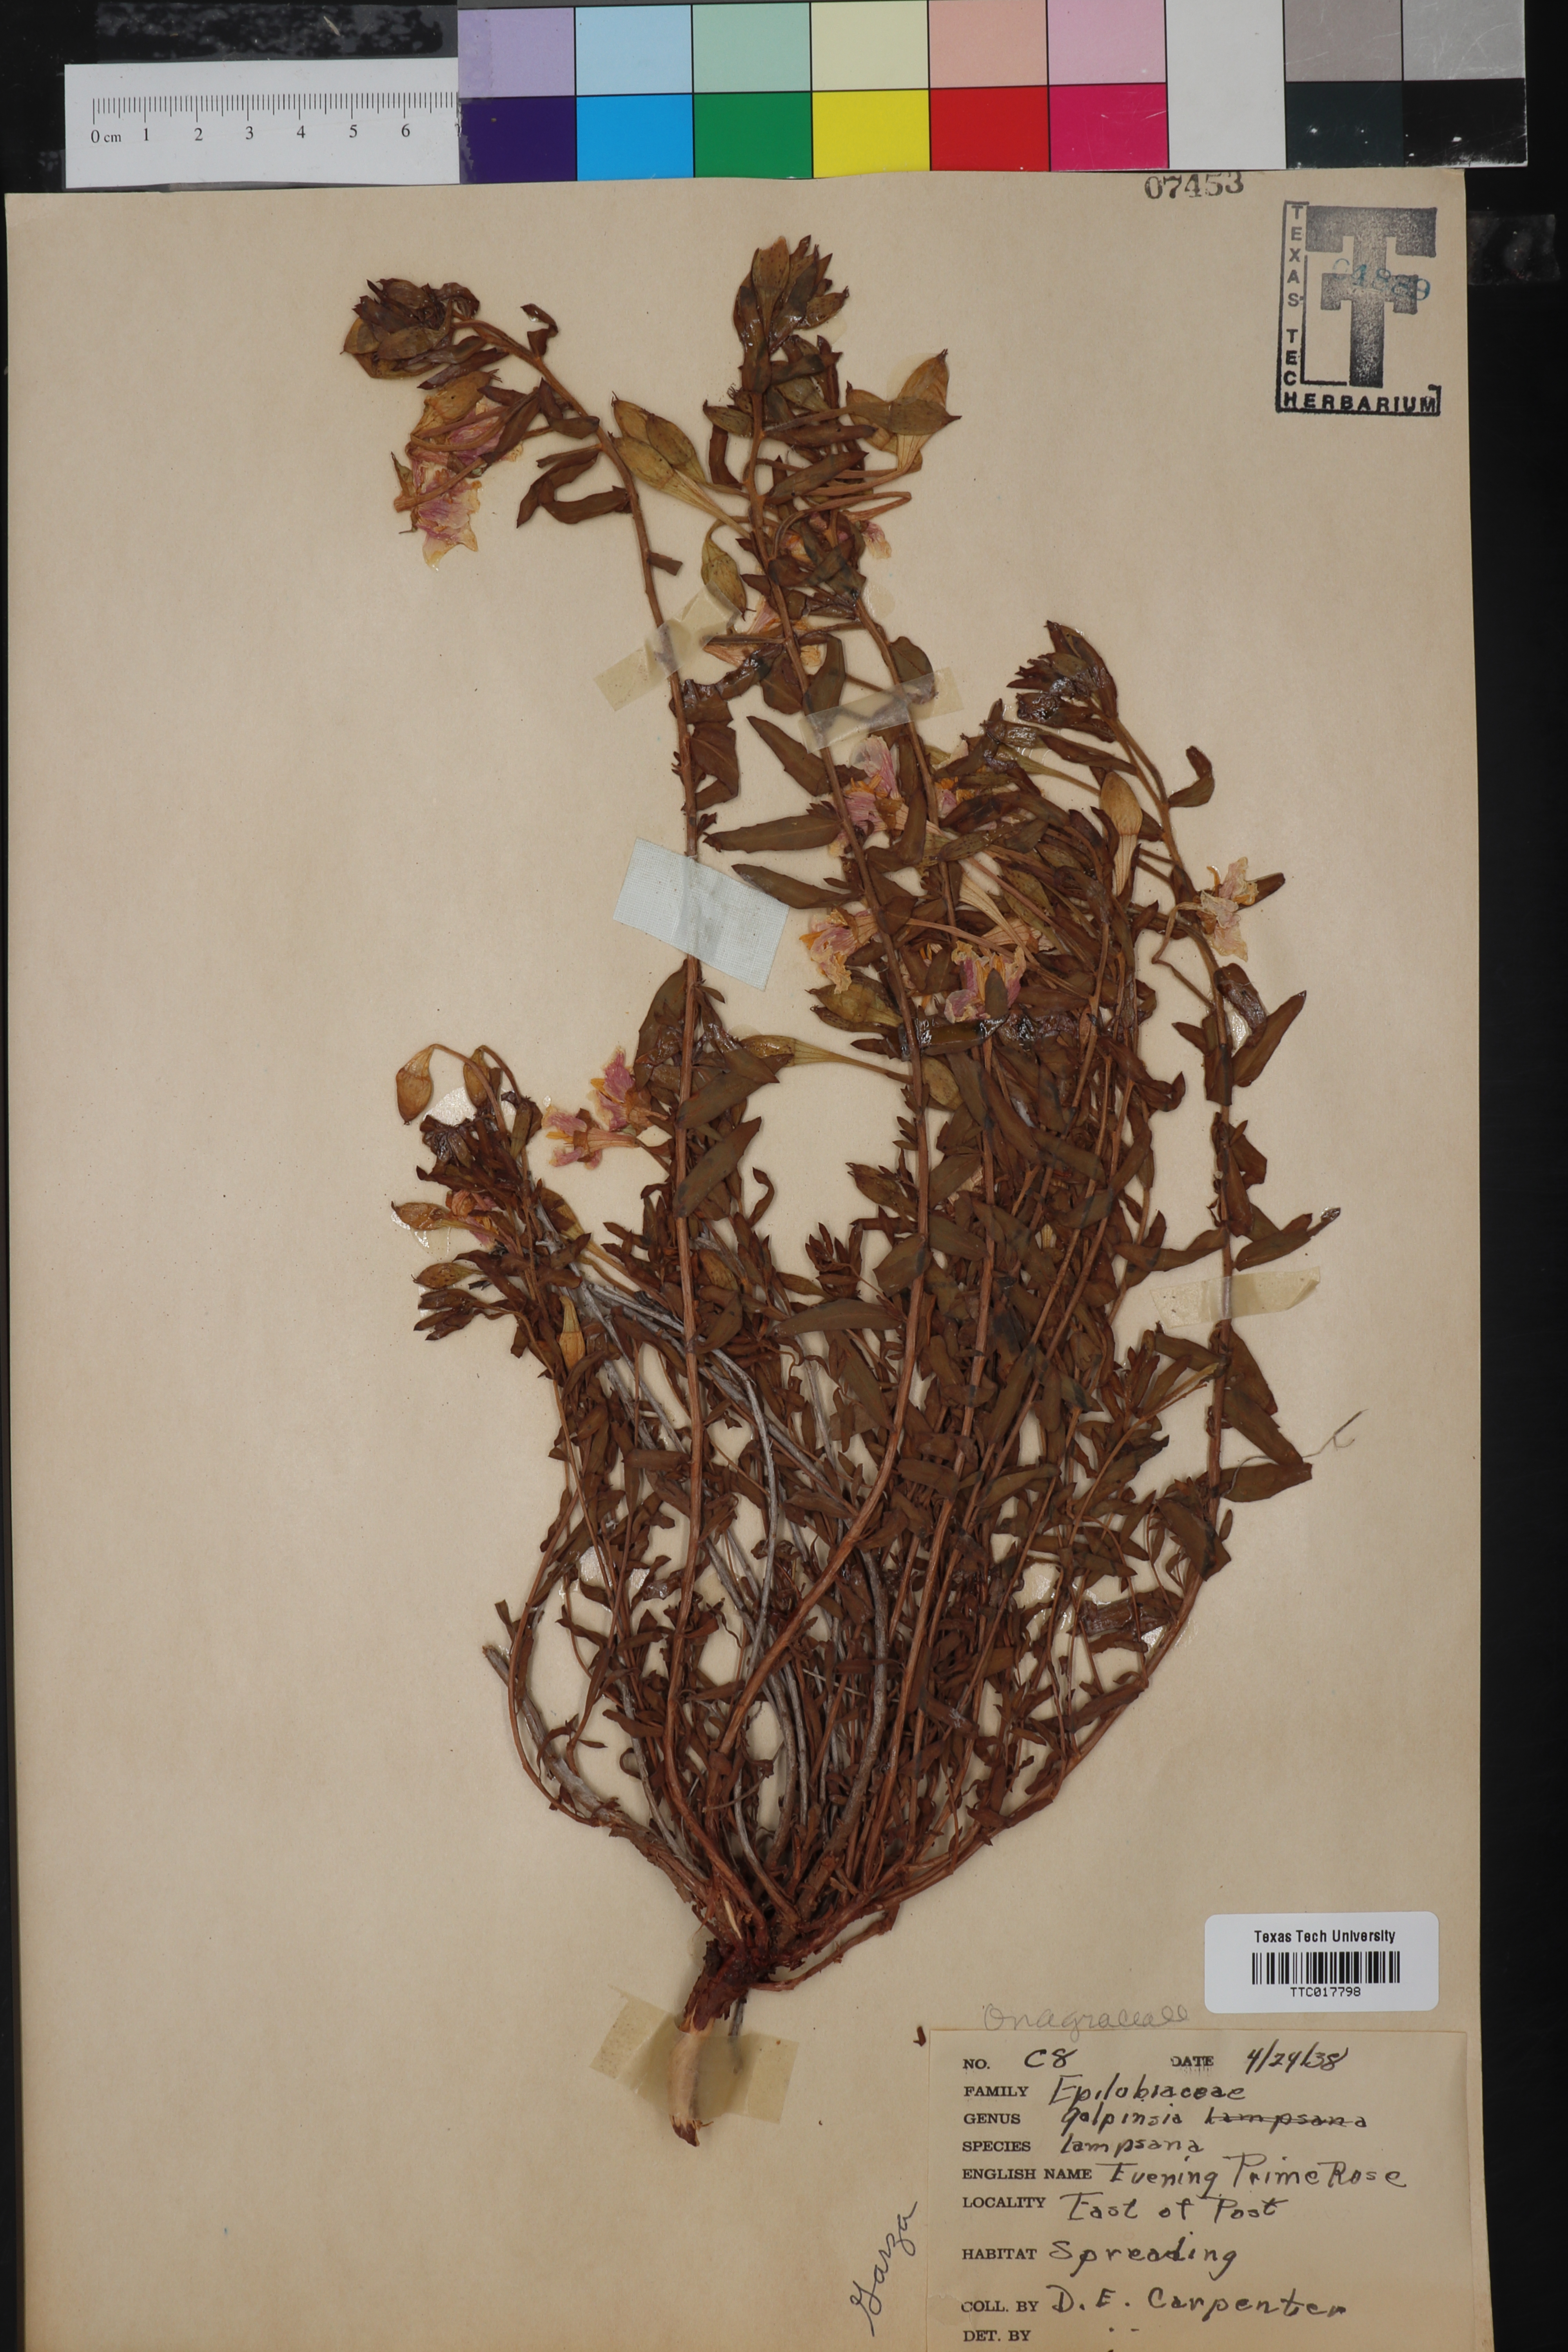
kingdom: Plantae
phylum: Tracheophyta
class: Magnoliopsida
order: Myrtales
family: Onagraceae
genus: Oenothera
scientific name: Oenothera hartwegii
